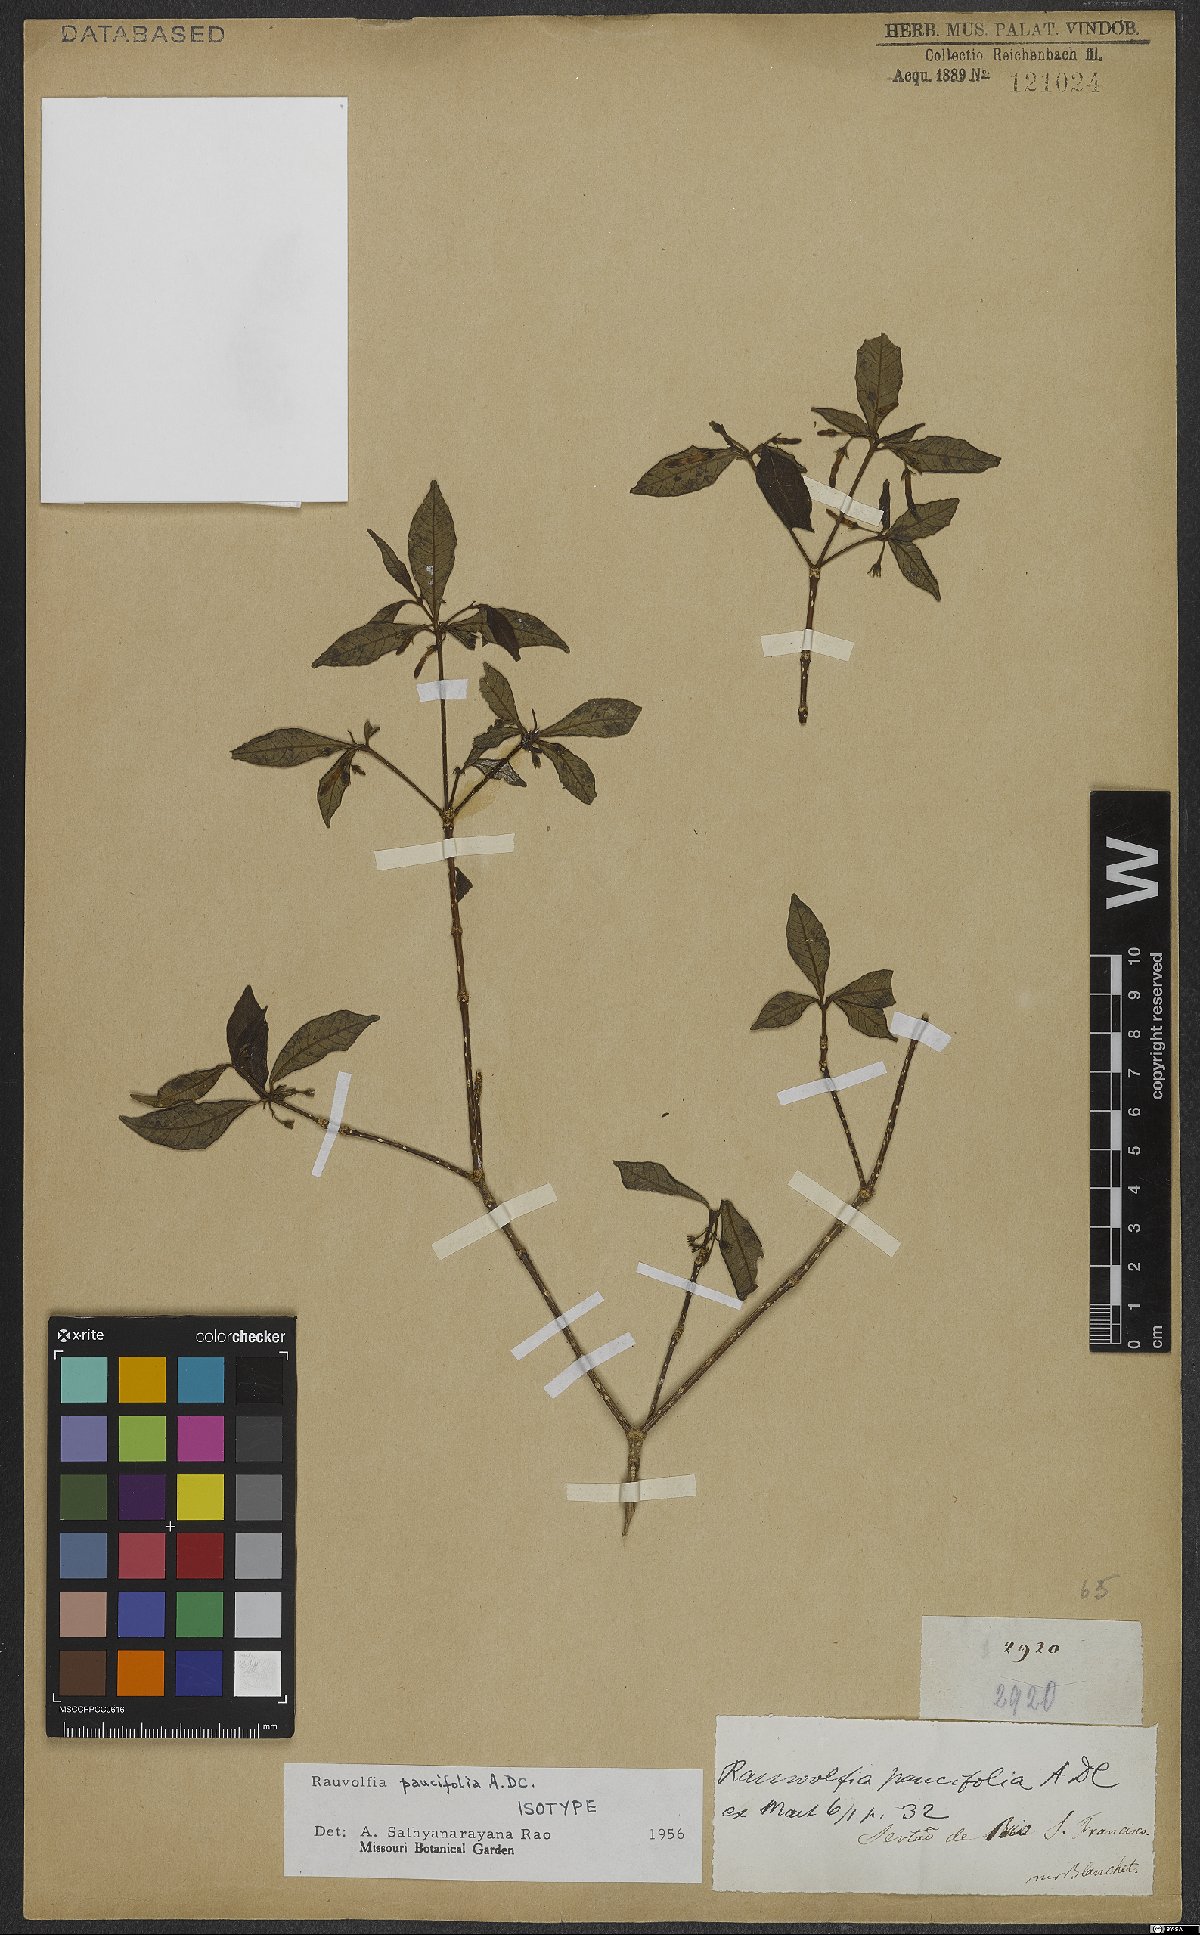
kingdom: Plantae
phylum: Tracheophyta
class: Magnoliopsida
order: Gentianales
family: Apocynaceae
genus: Rauvolfia
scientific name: Rauvolfia paucifolia
